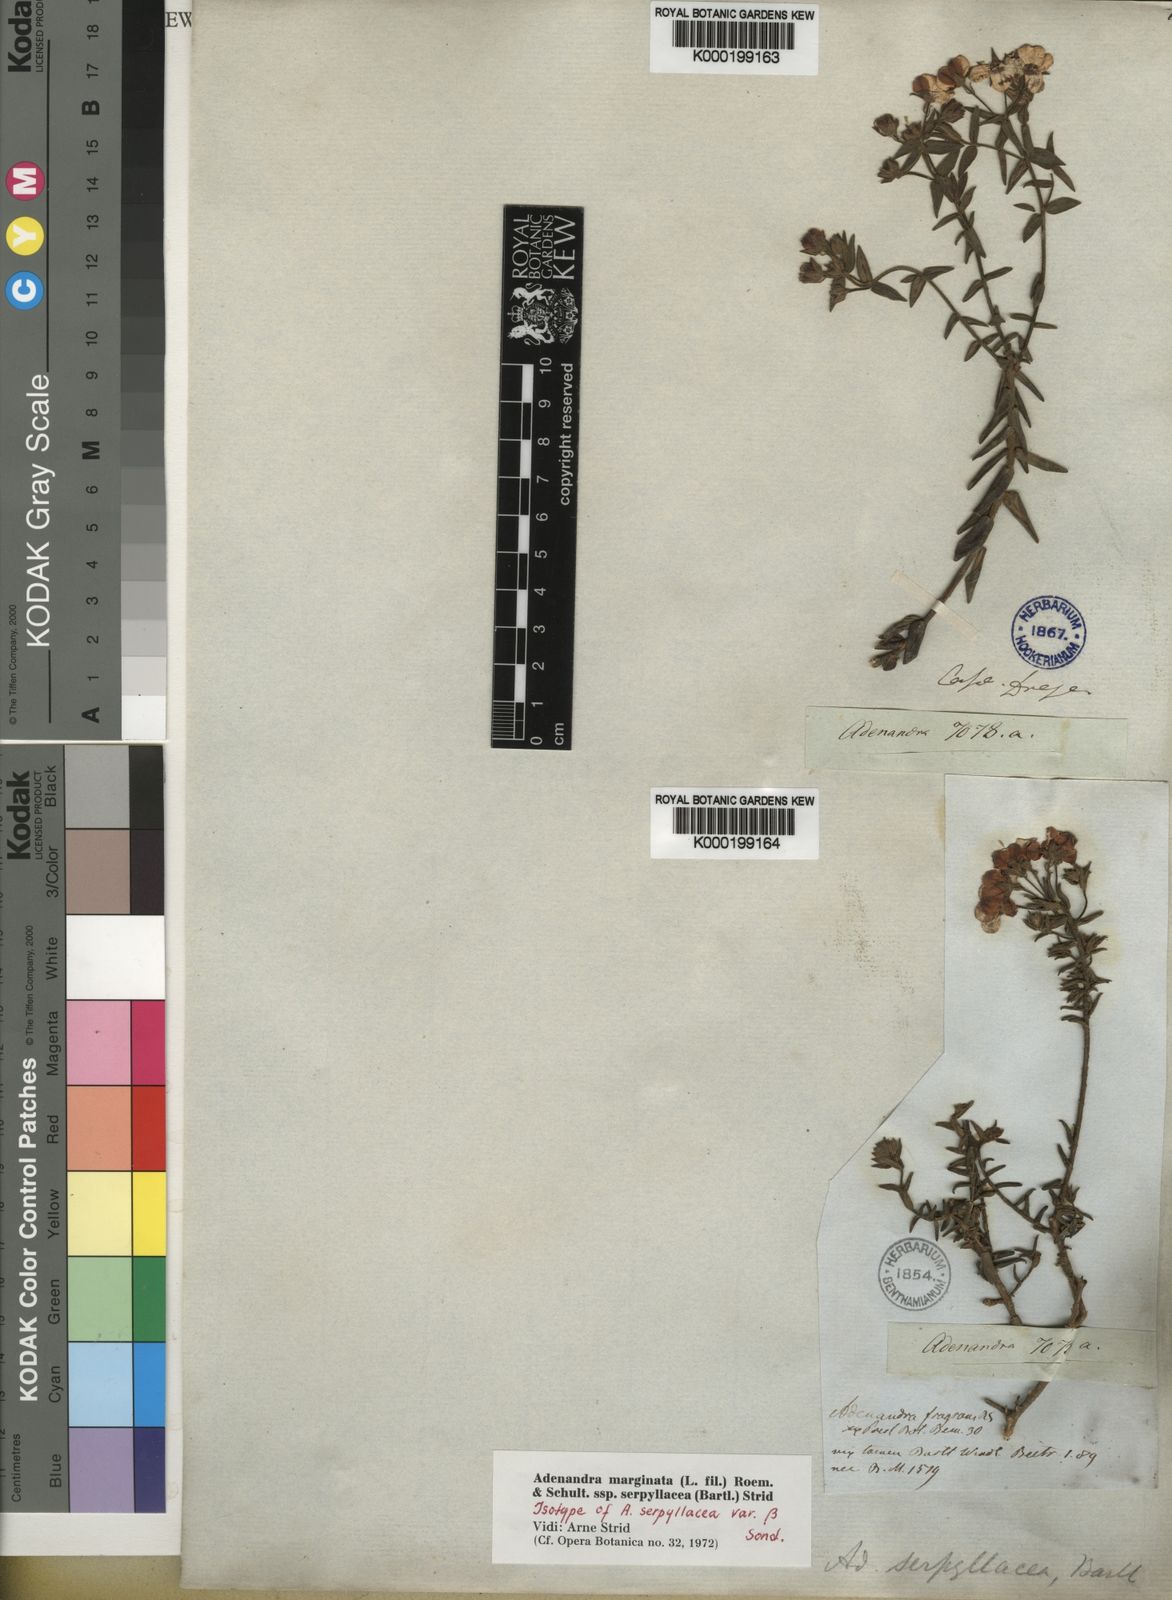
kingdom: Plantae
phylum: Tracheophyta
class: Magnoliopsida
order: Sapindales
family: Rutaceae
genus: Adenandra
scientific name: Adenandra marginata
